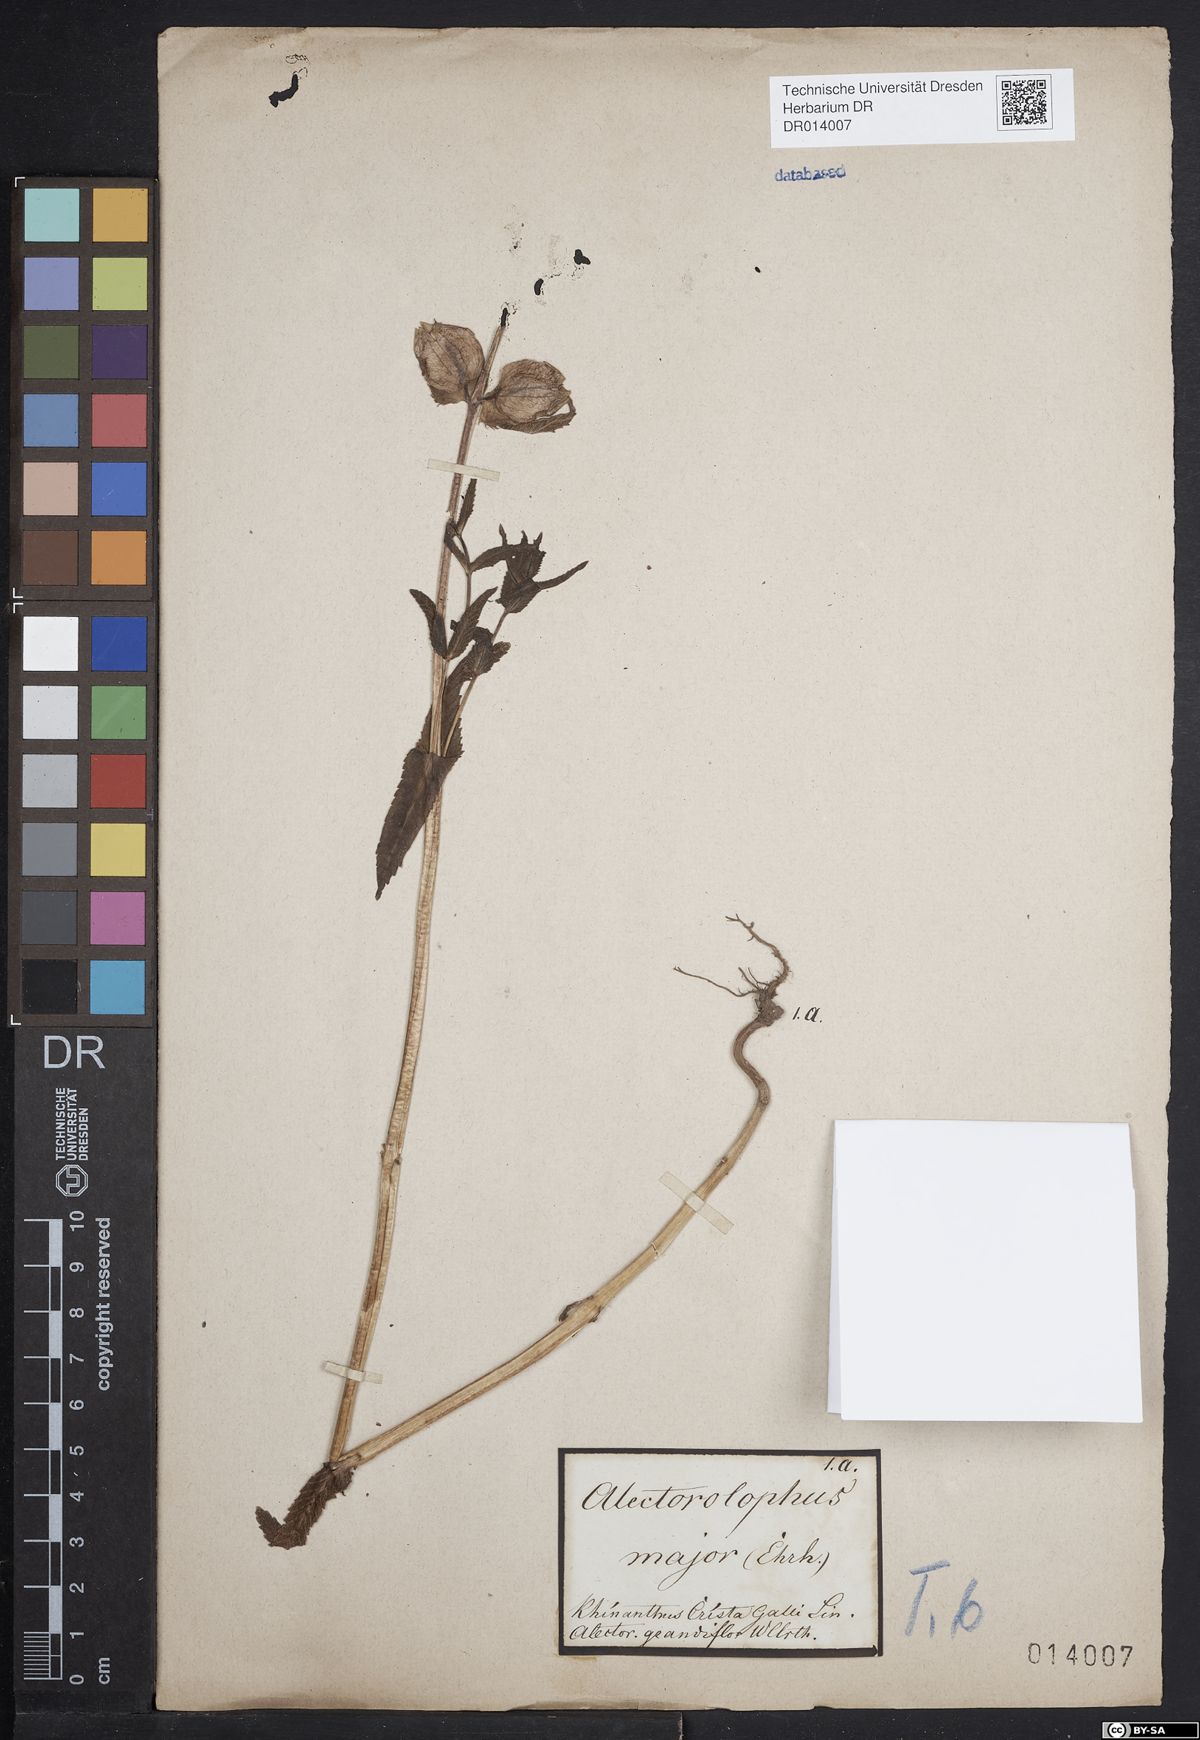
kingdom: Plantae
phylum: Tracheophyta
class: Magnoliopsida
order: Lamiales
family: Orobanchaceae
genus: Rhinanthus
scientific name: Rhinanthus serotinus
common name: Late-flowering yellow rattle
